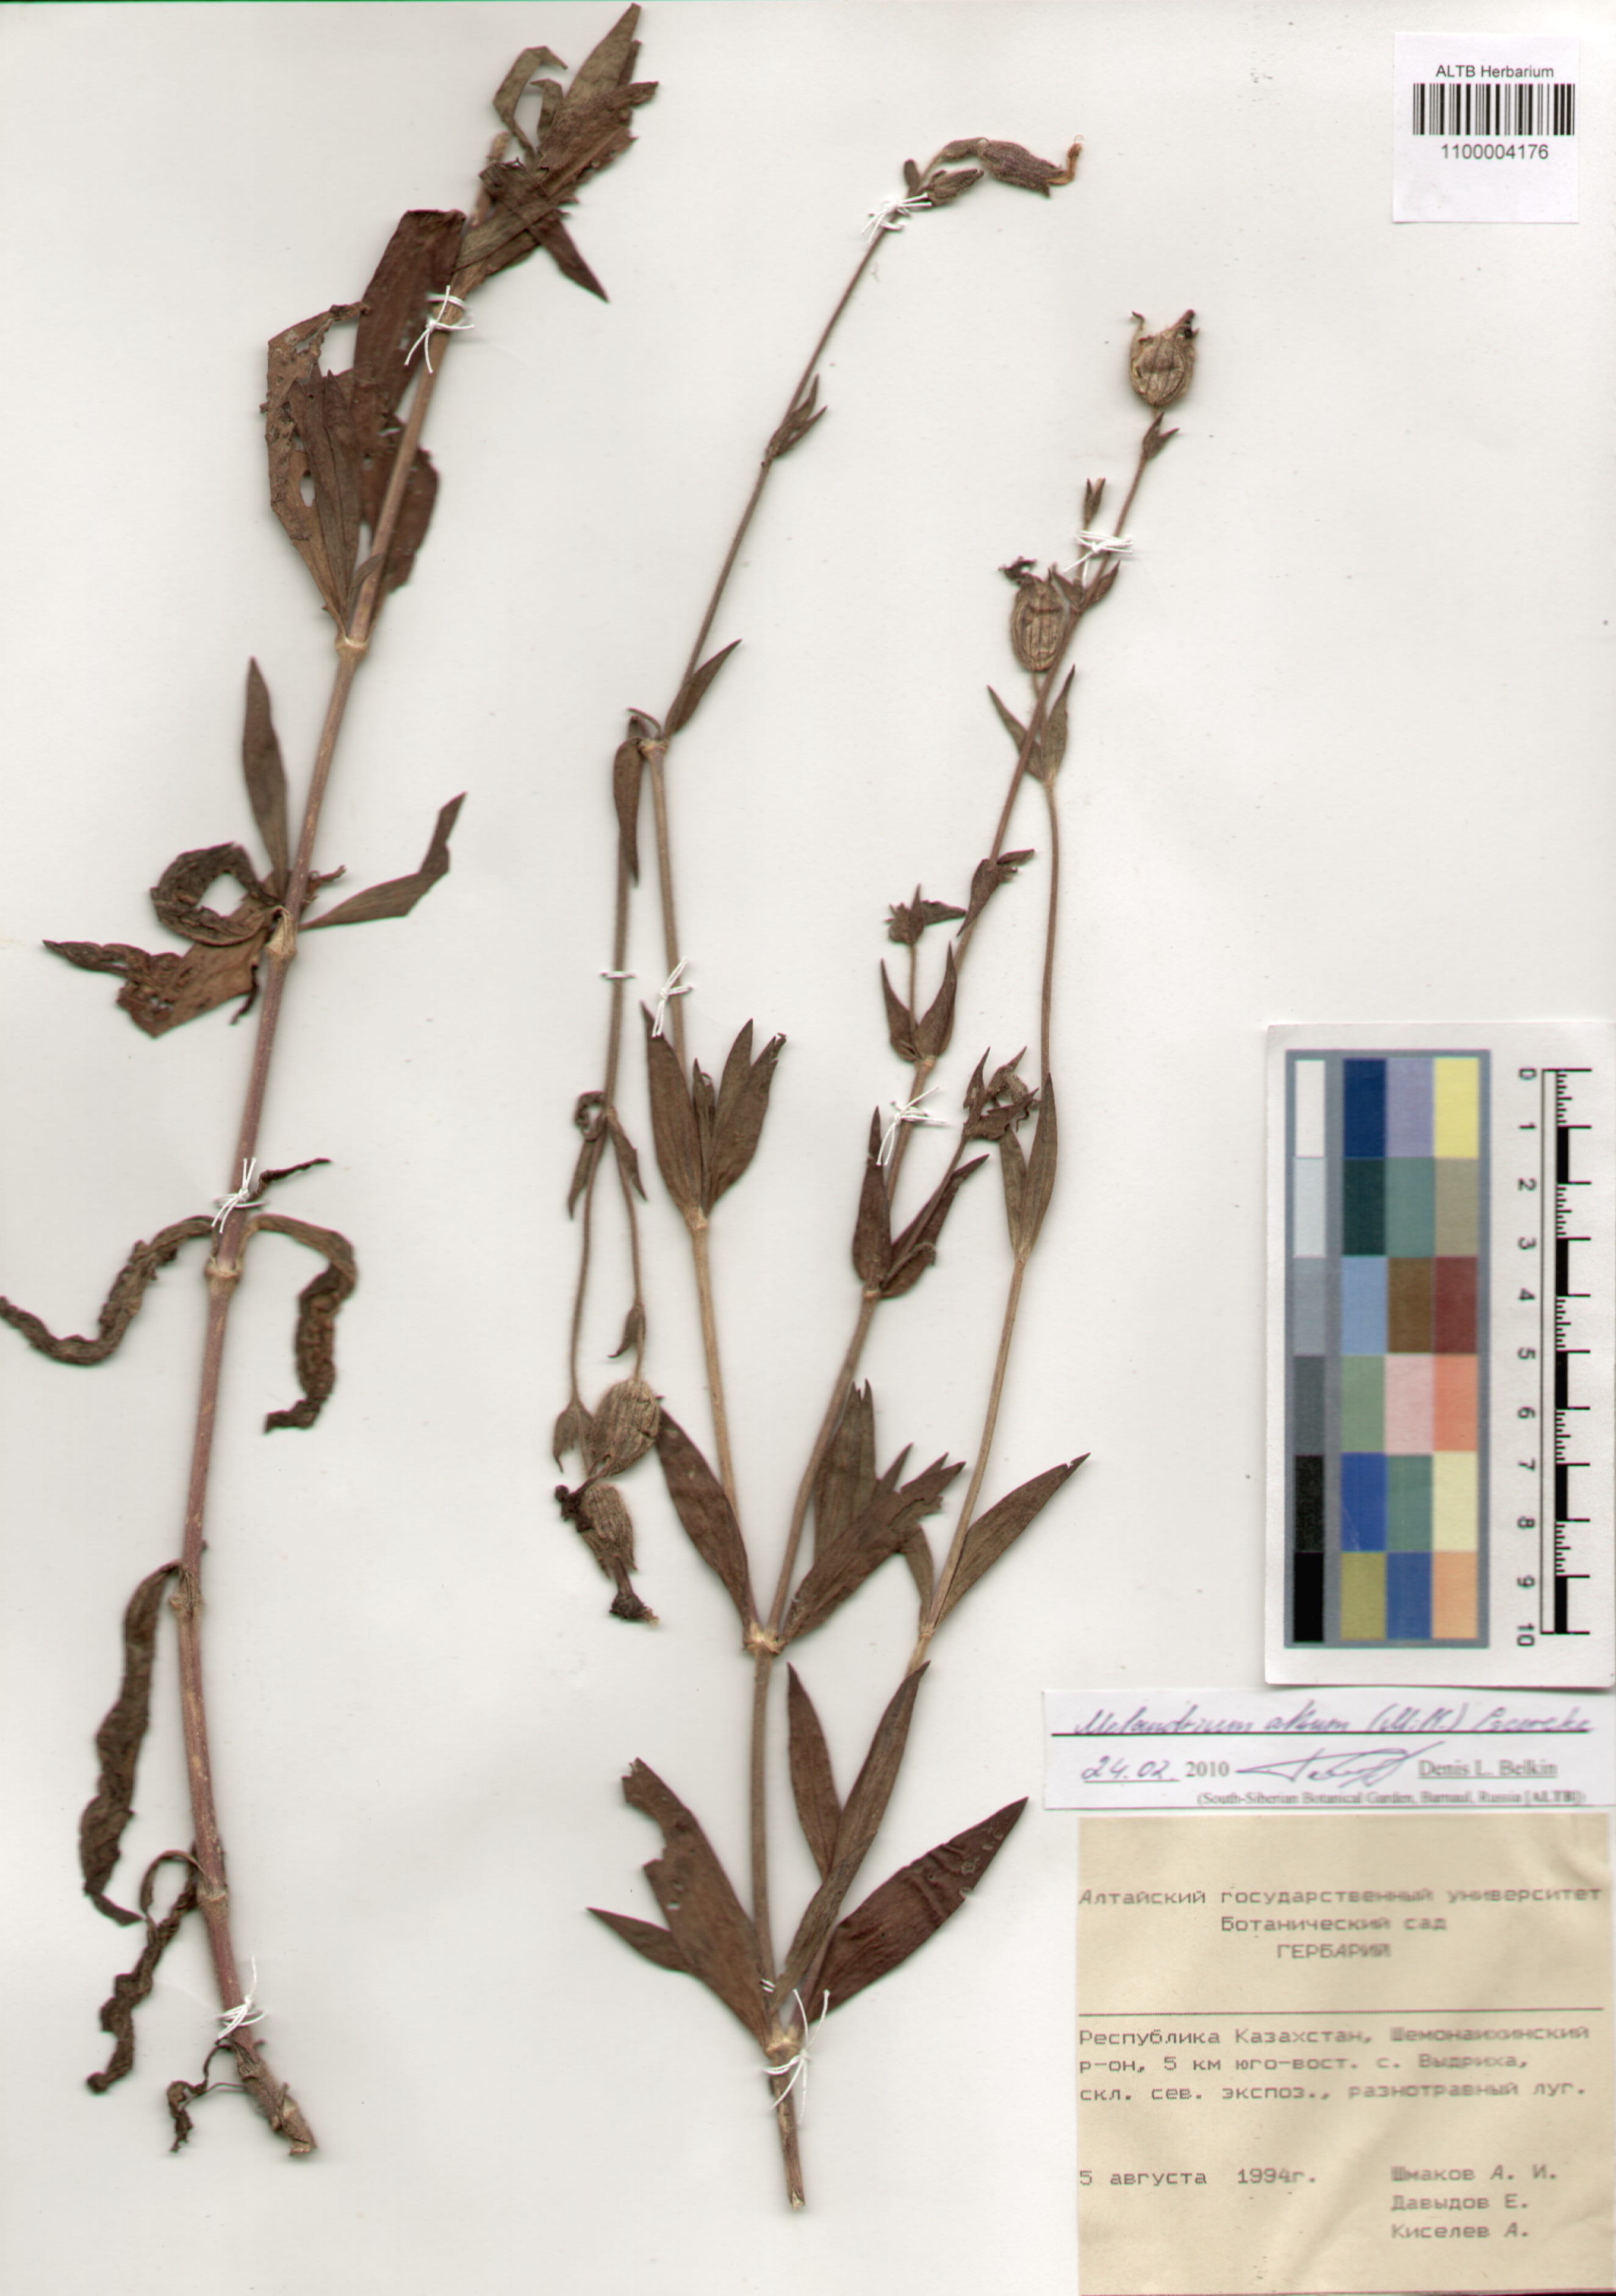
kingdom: Plantae
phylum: Tracheophyta
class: Magnoliopsida
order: Caryophyllales
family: Caryophyllaceae
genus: Silene
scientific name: Silene latifolia
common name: White campion
